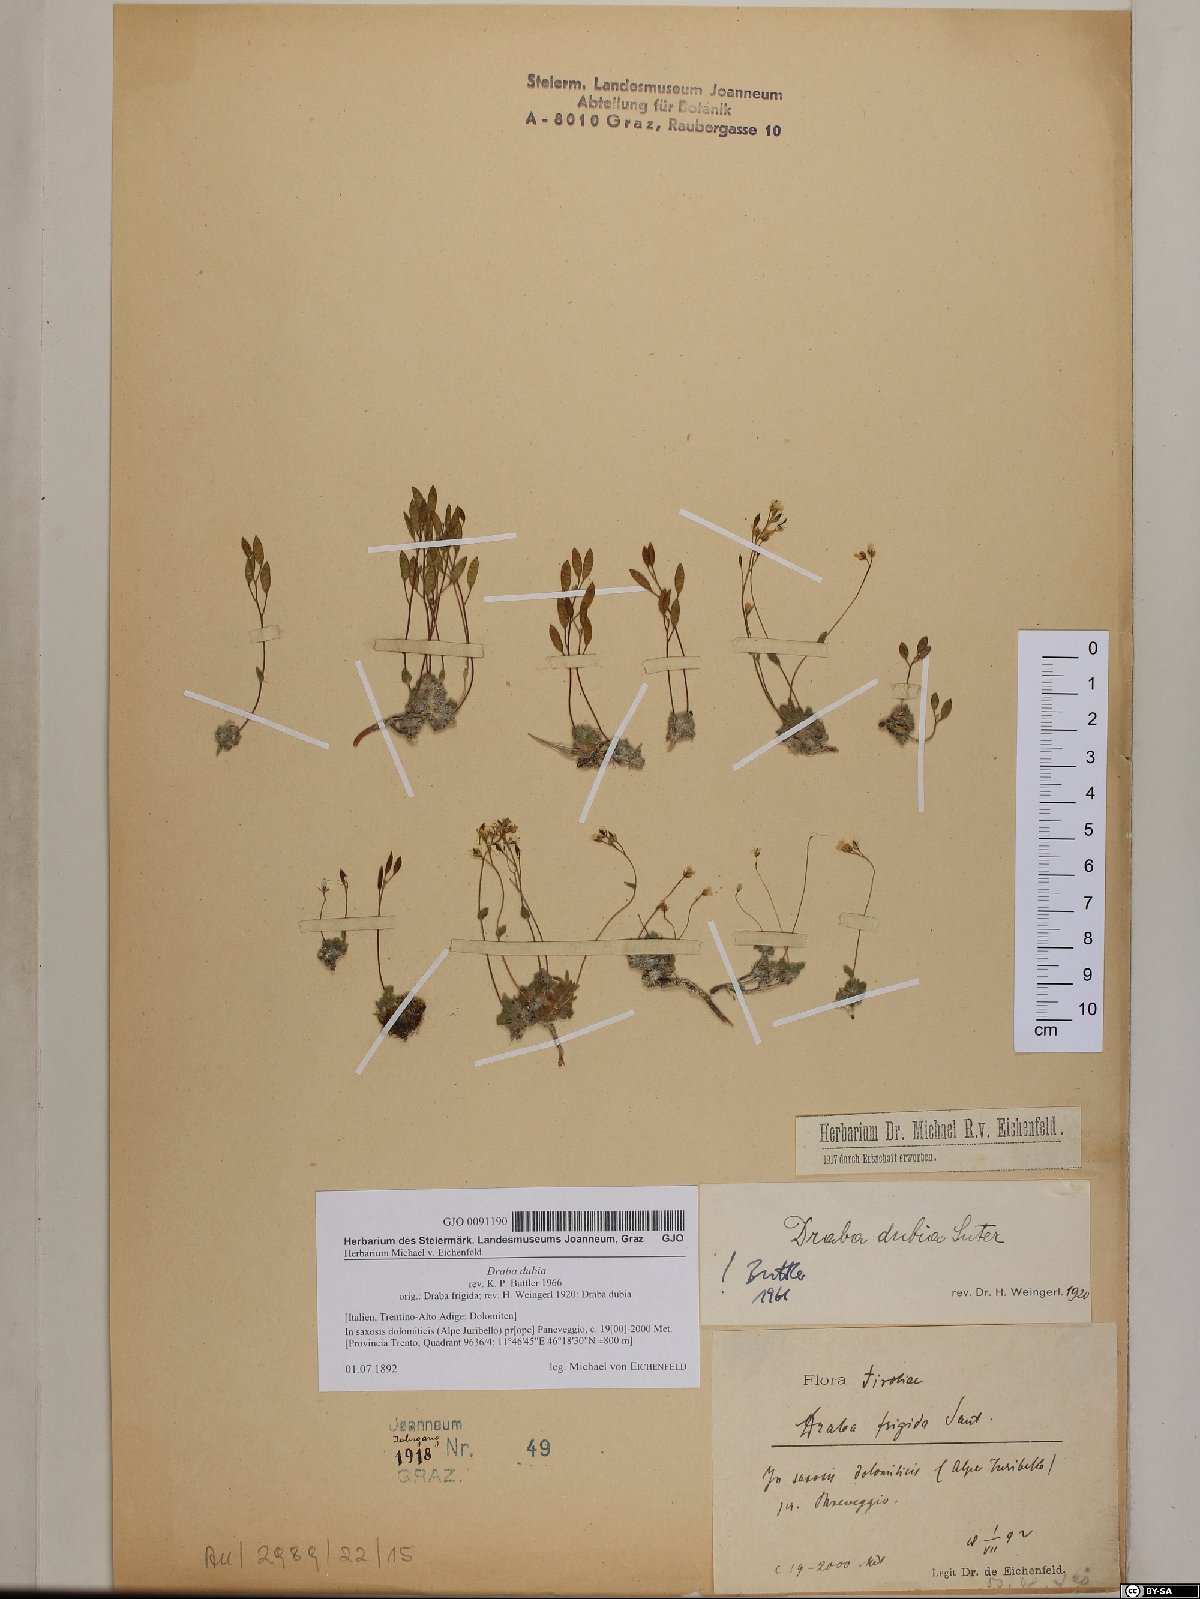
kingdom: Plantae
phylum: Tracheophyta
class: Magnoliopsida
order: Brassicales
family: Brassicaceae
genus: Draba
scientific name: Draba dubia
